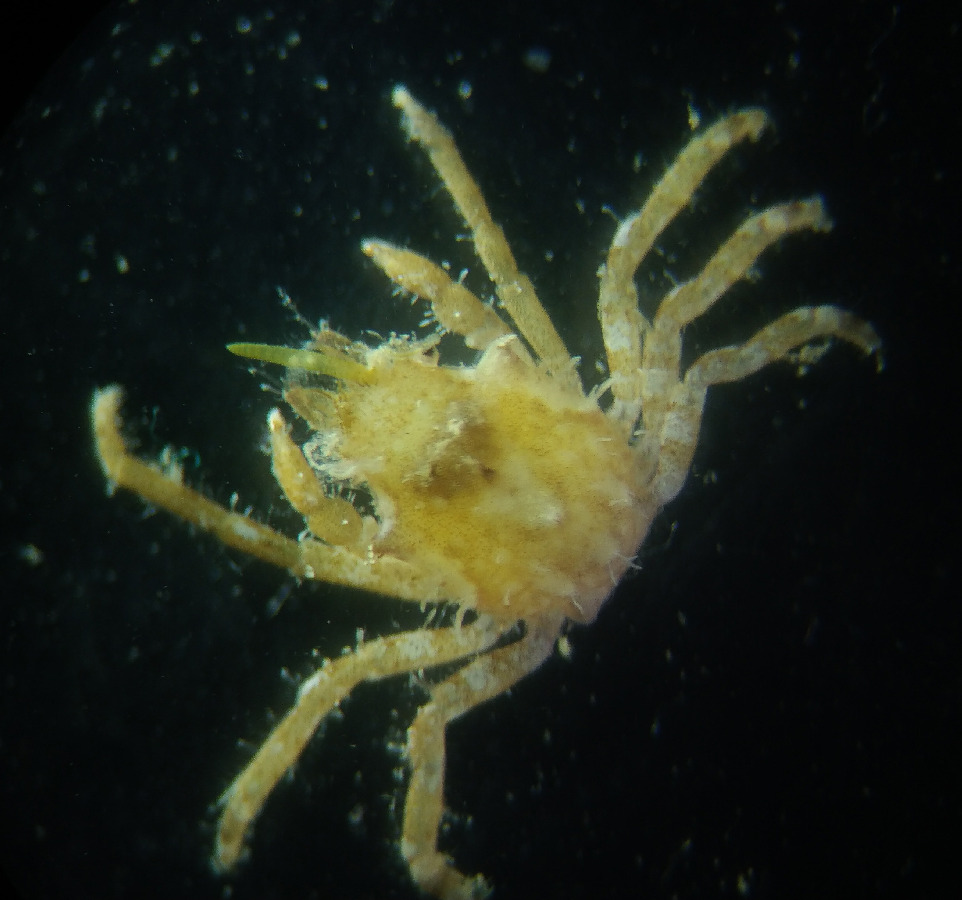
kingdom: Animalia
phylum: Arthropoda
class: Malacostraca
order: Decapoda
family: Epialtidae
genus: Acanthonyx
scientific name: Acanthonyx lunulatus
